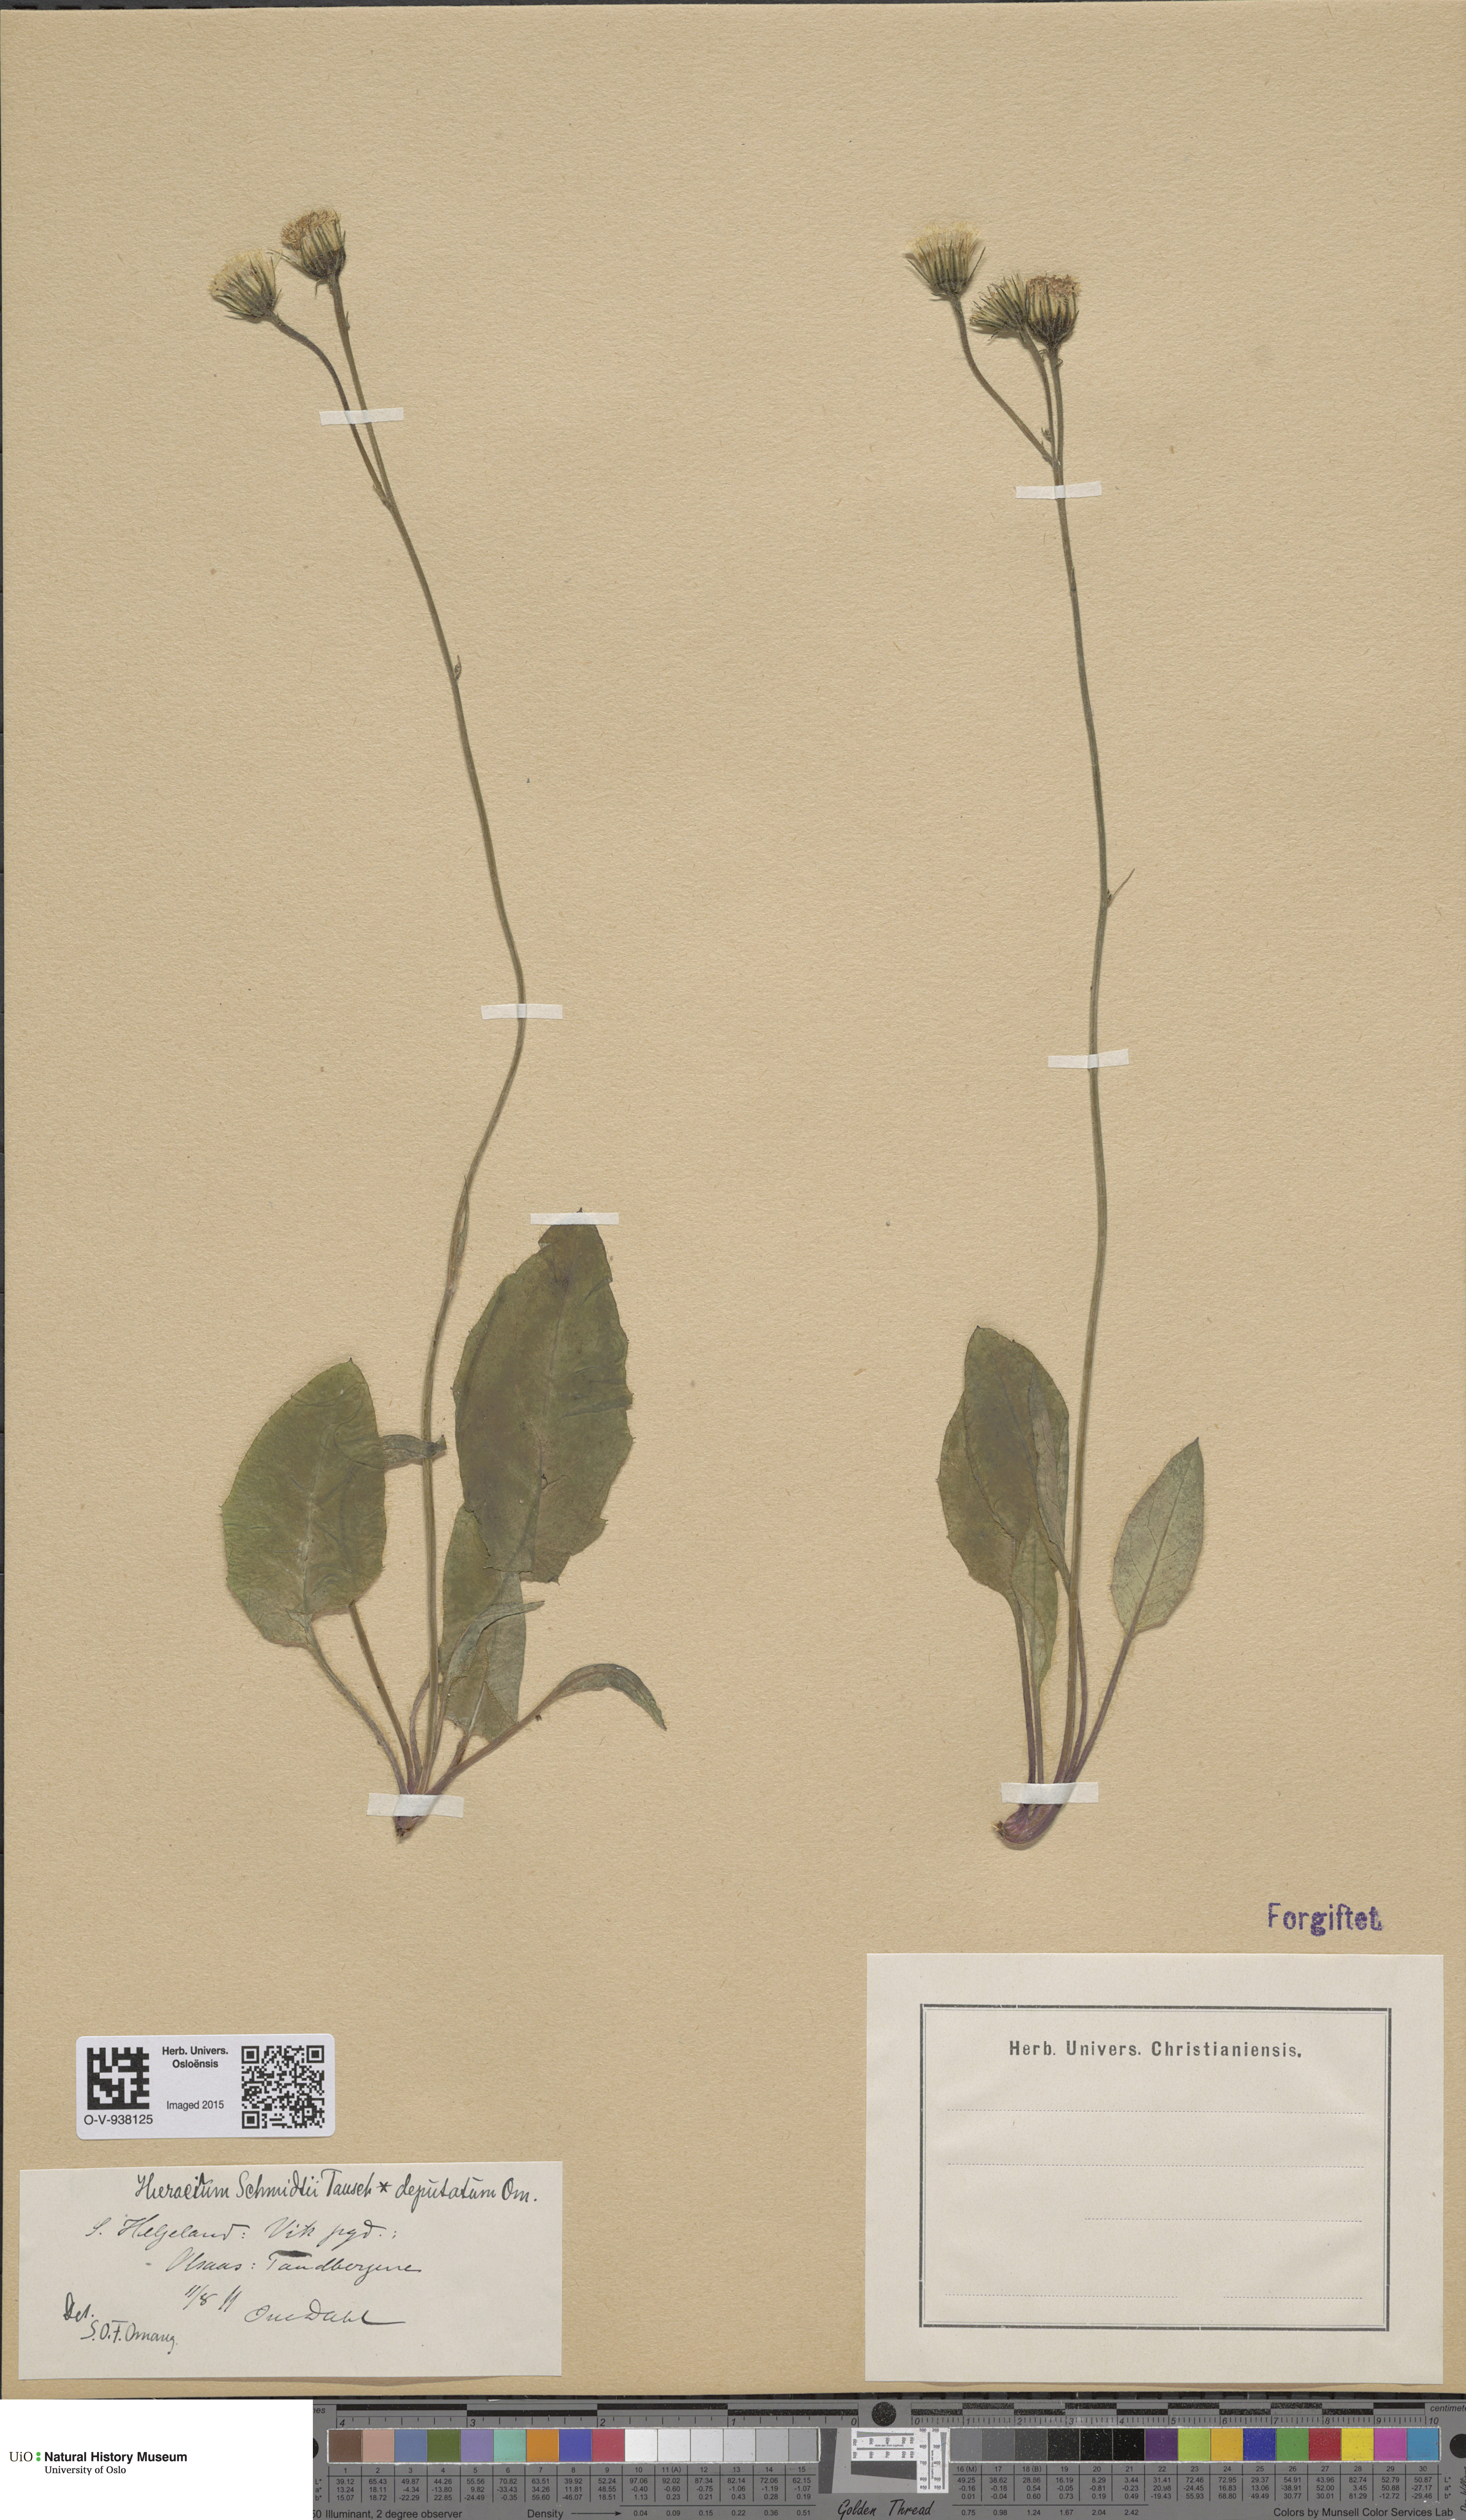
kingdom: Plantae
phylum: Tracheophyta
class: Magnoliopsida
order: Asterales
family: Asteraceae
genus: Hieracium
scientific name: Hieracium schmidtii
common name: Schmidt's hawkweed
